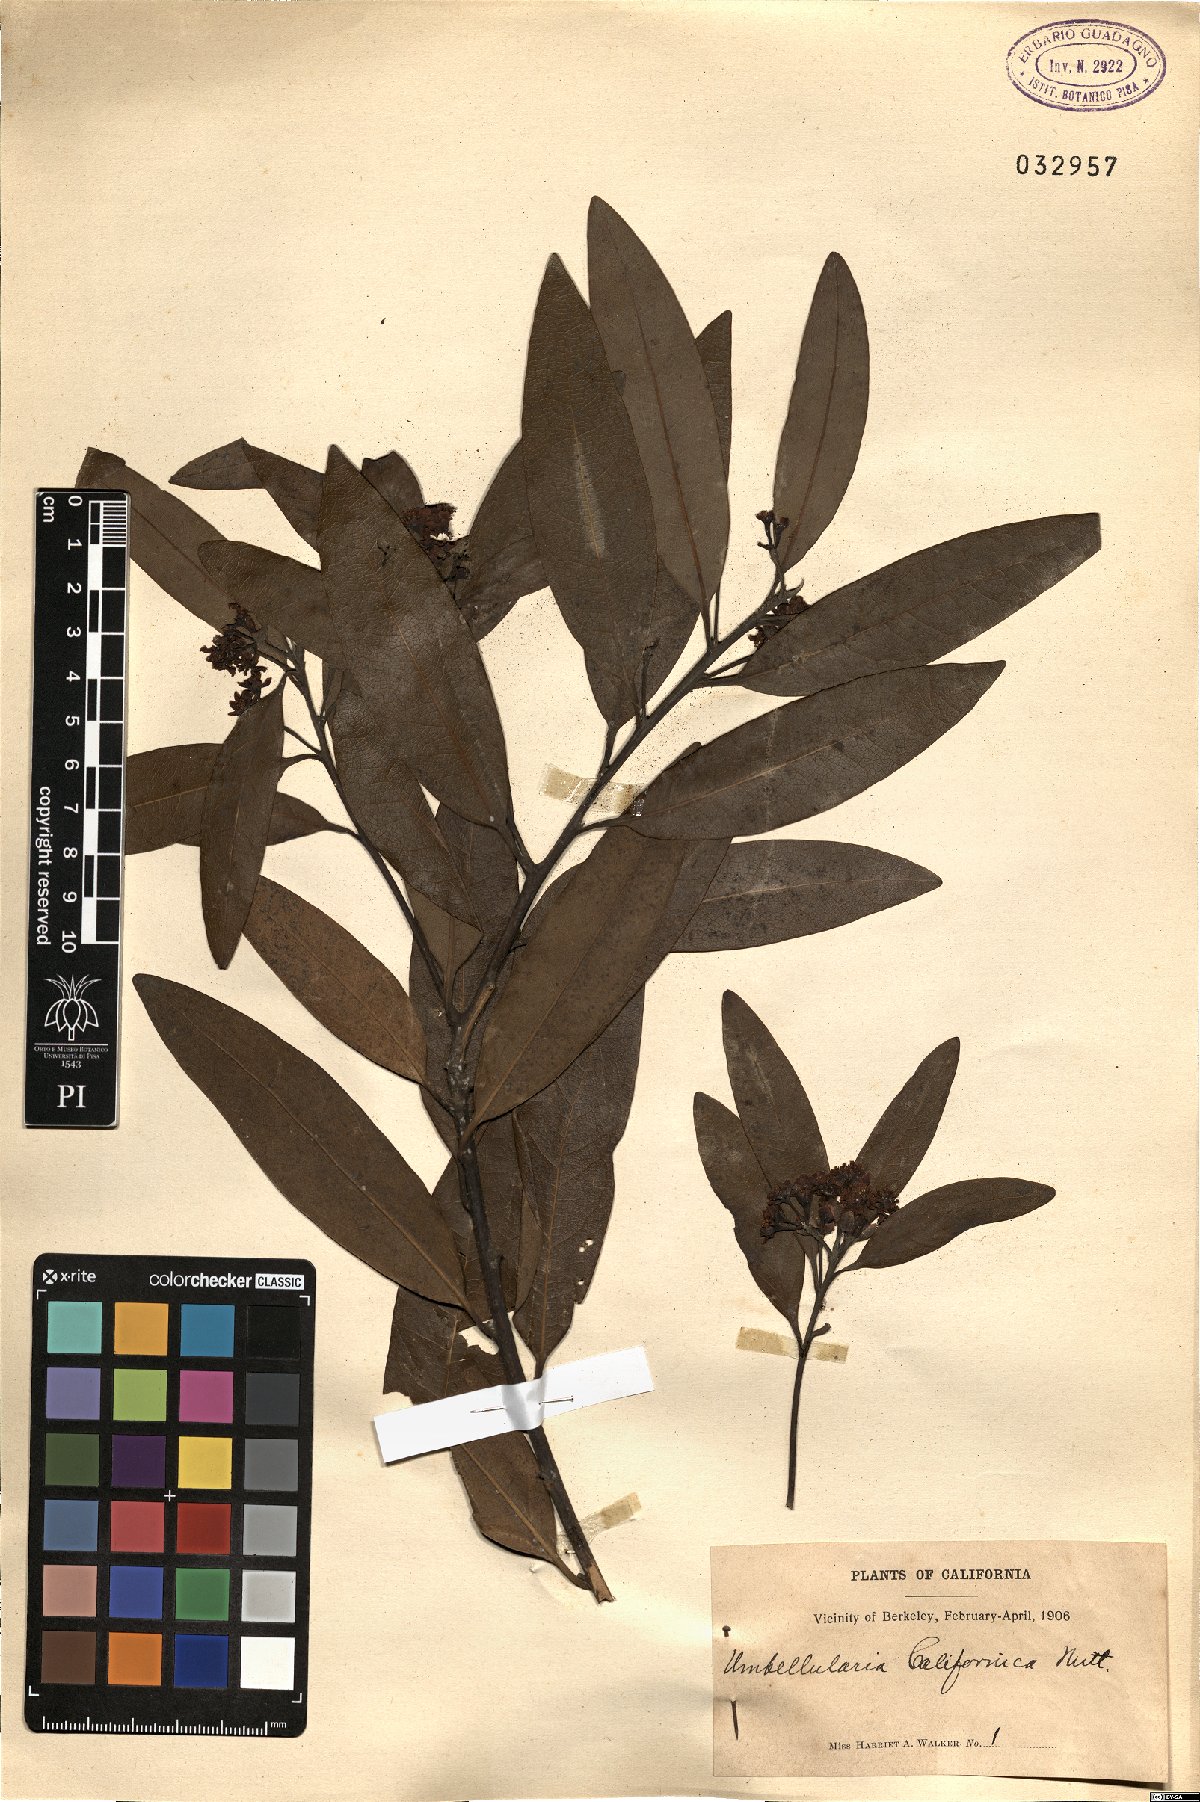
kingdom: Plantae
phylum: Tracheophyta
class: Magnoliopsida
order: Laurales
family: Lauraceae
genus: Umbellularia
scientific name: Umbellularia californica
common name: California bay
